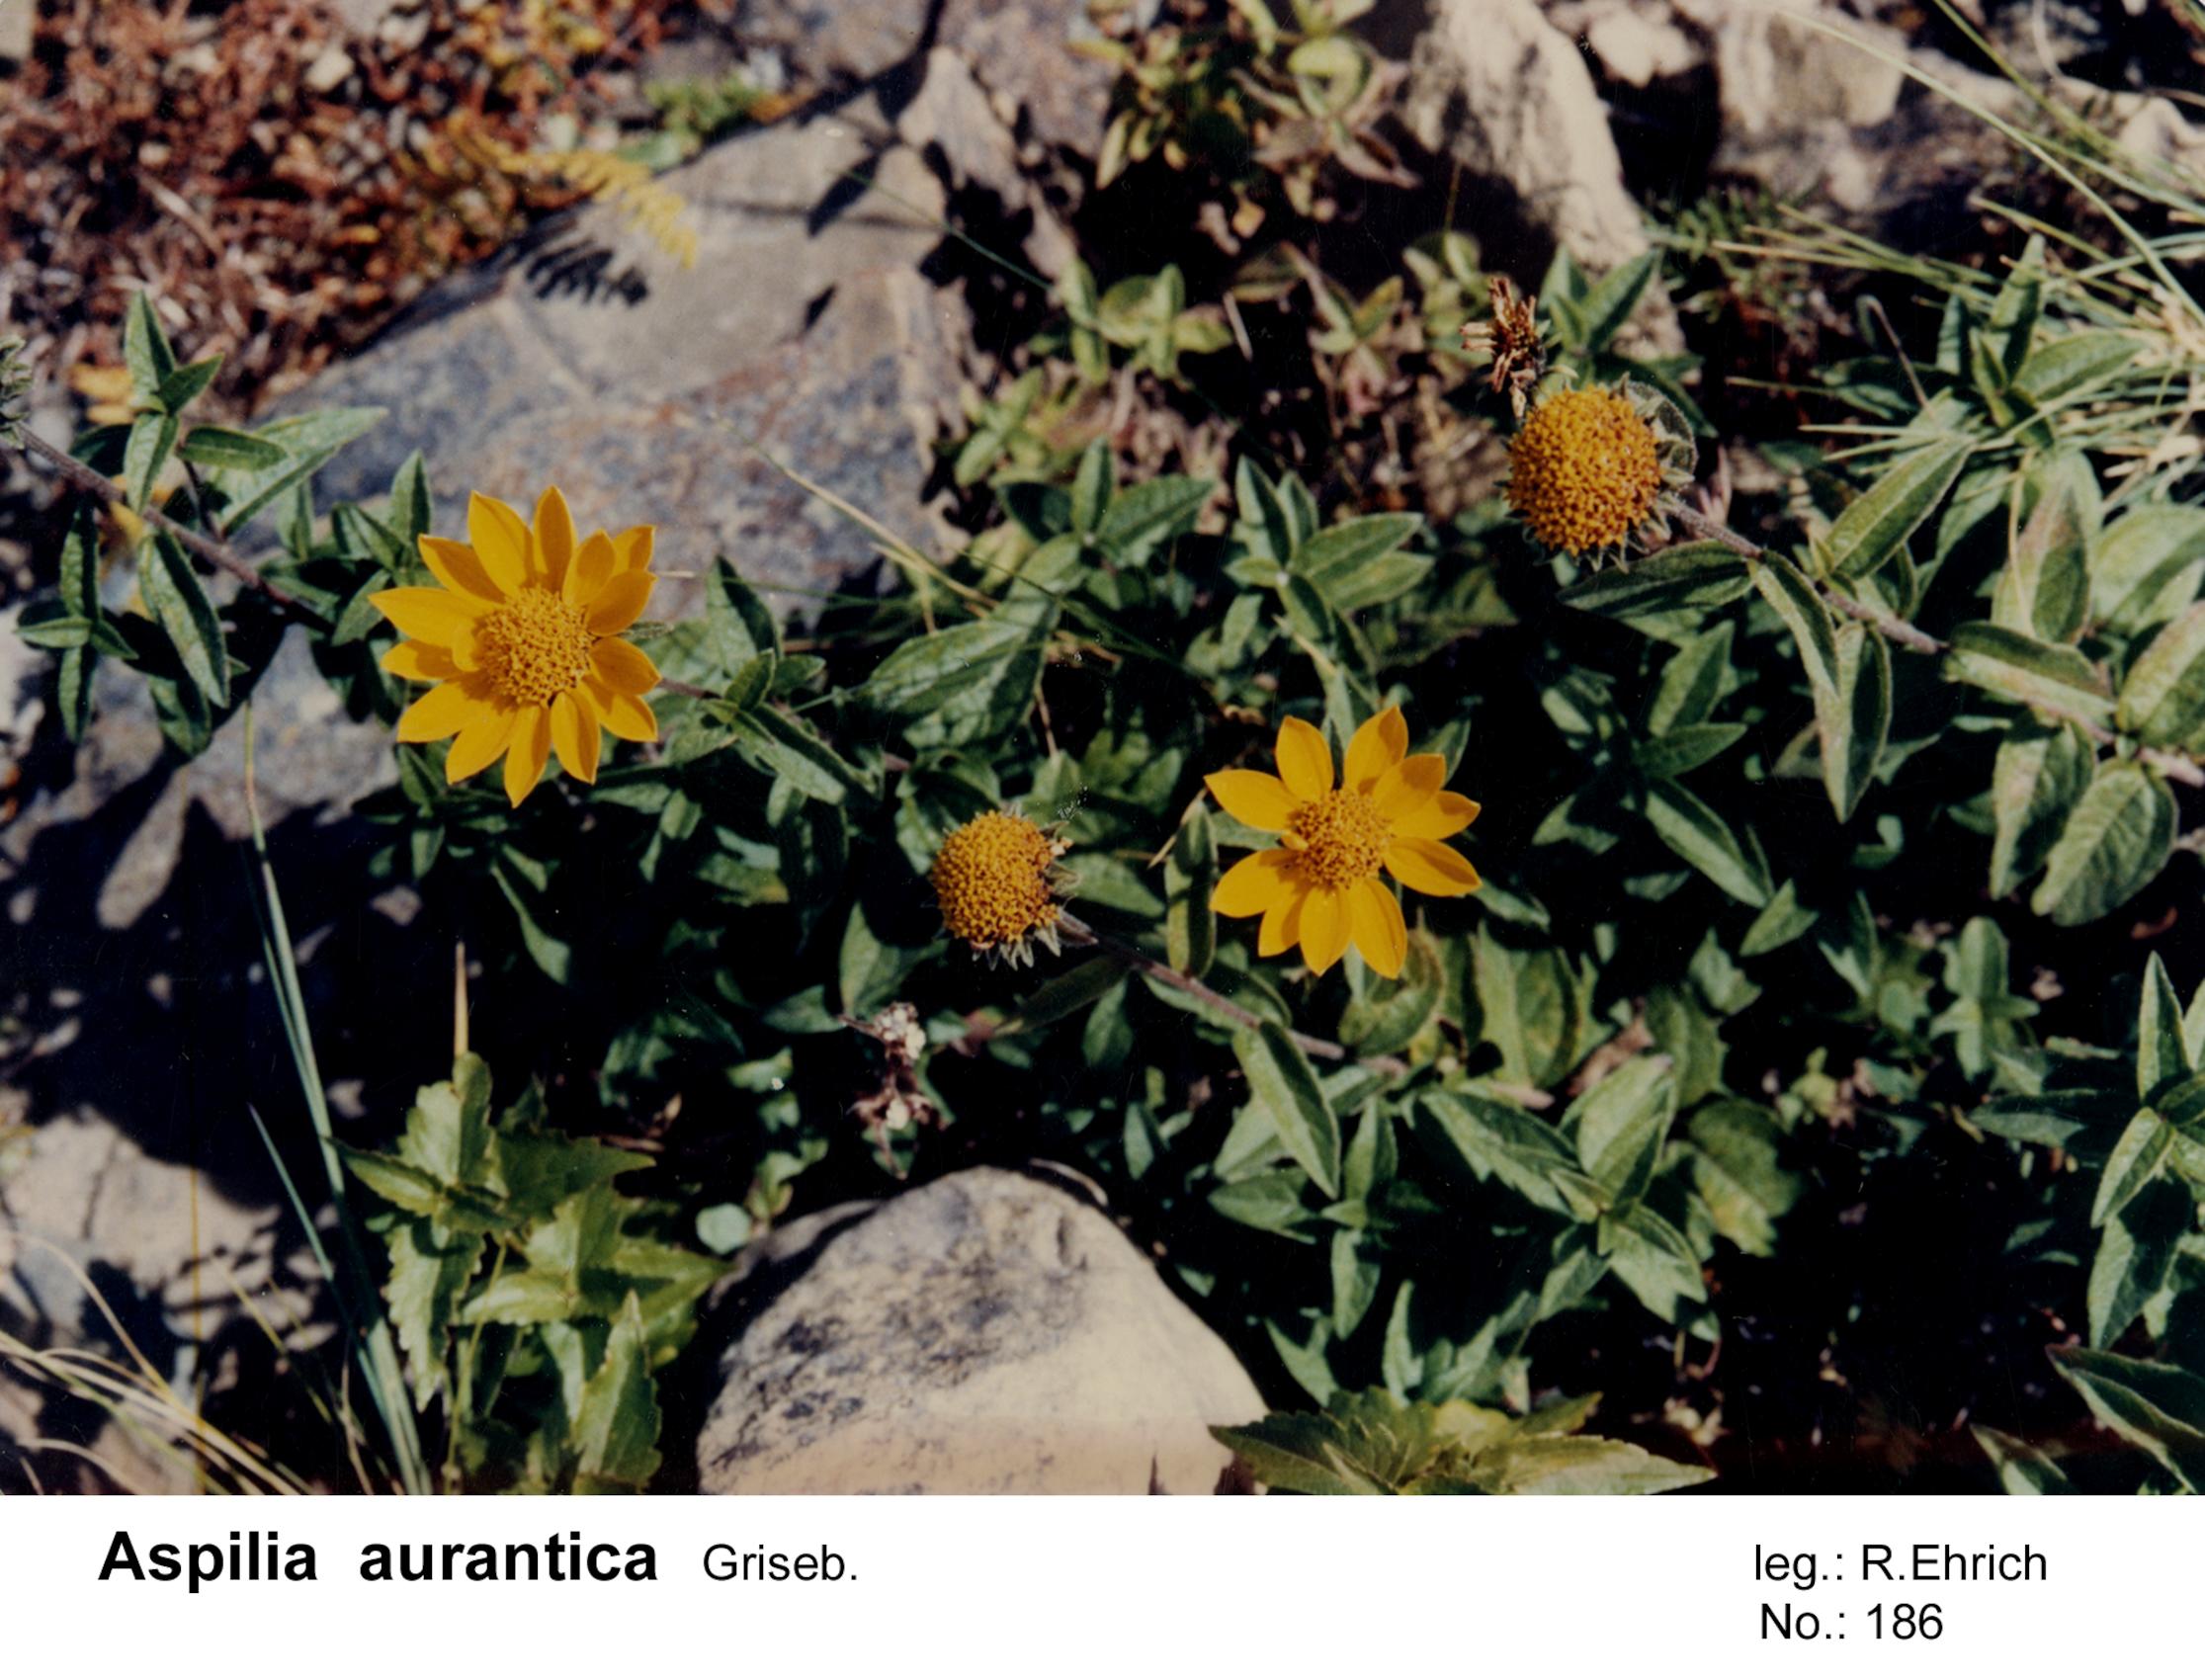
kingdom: Plantae
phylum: Tracheophyta
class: Magnoliopsida
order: Asterales
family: Asteraceae
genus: Wedelia
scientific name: Wedelia aurantiaca
